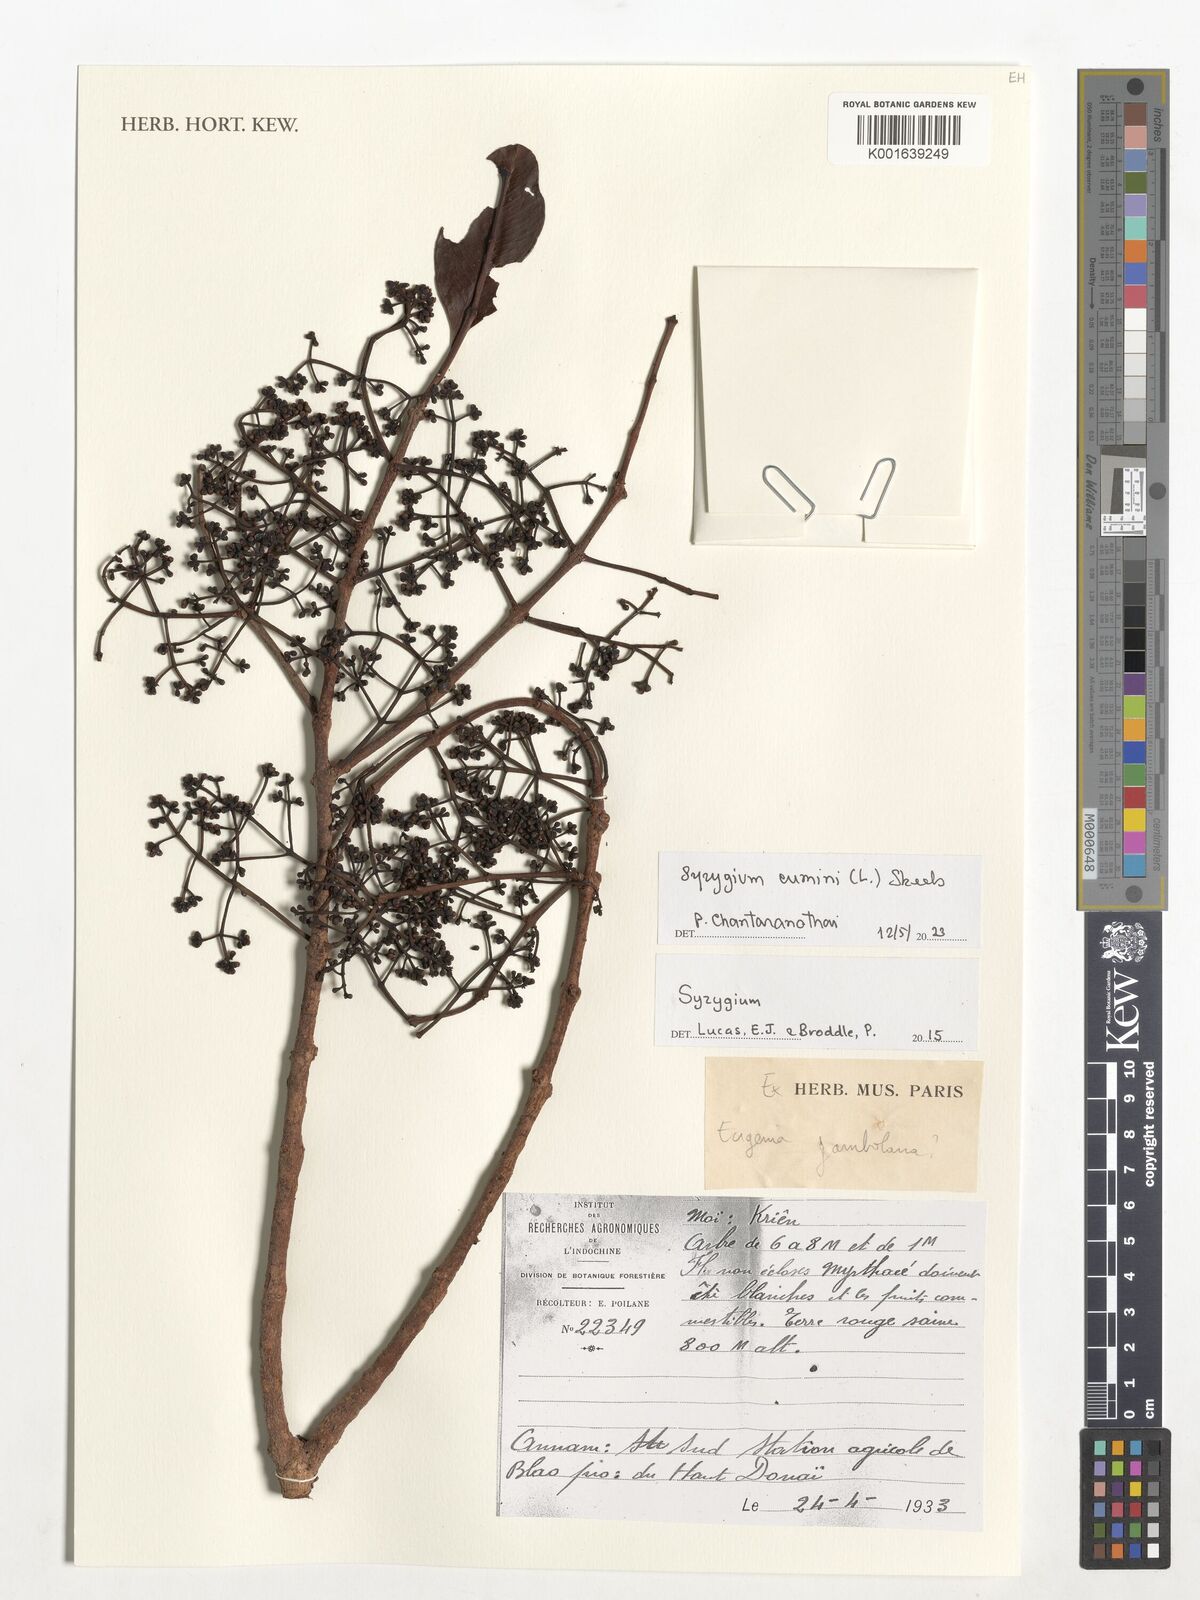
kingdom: Plantae
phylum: Tracheophyta
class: Magnoliopsida
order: Myrtales
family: Myrtaceae
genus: Syzygium
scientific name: Syzygium cumini
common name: Java plum
